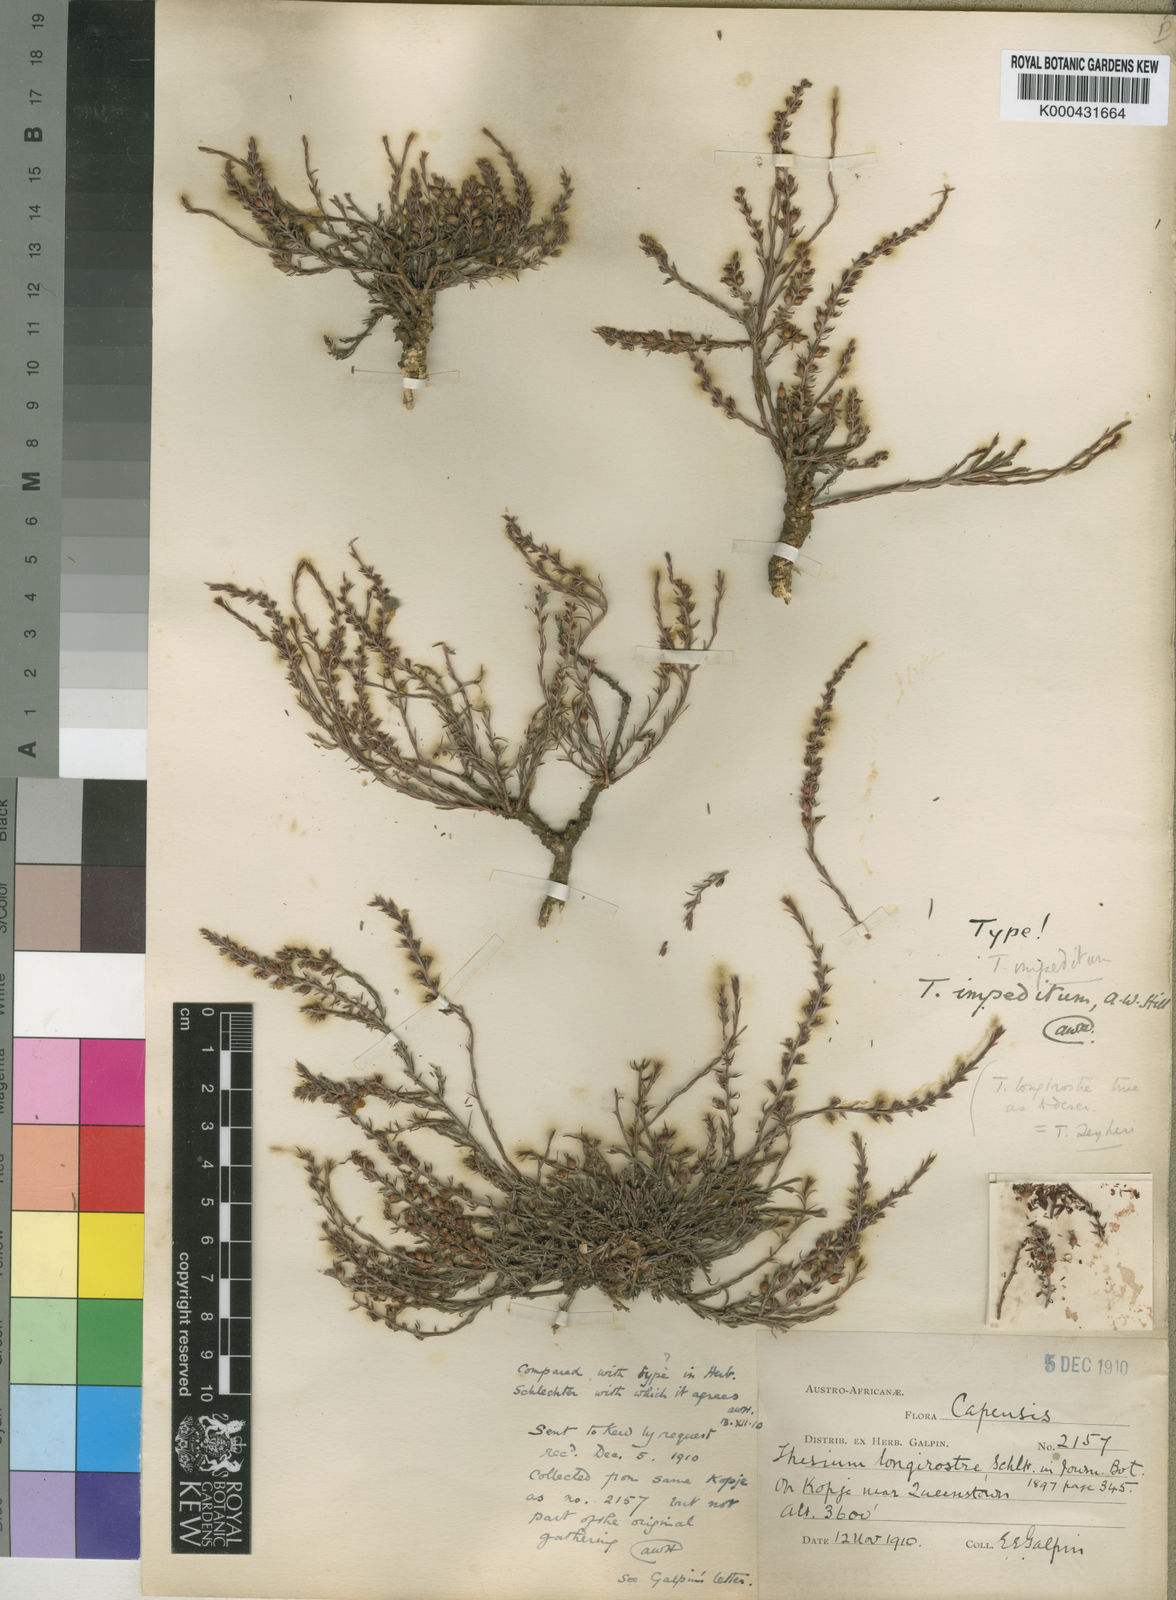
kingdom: Plantae
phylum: Tracheophyta
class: Magnoliopsida
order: Santalales
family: Thesiaceae
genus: Thesium
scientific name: Thesium impeditum
